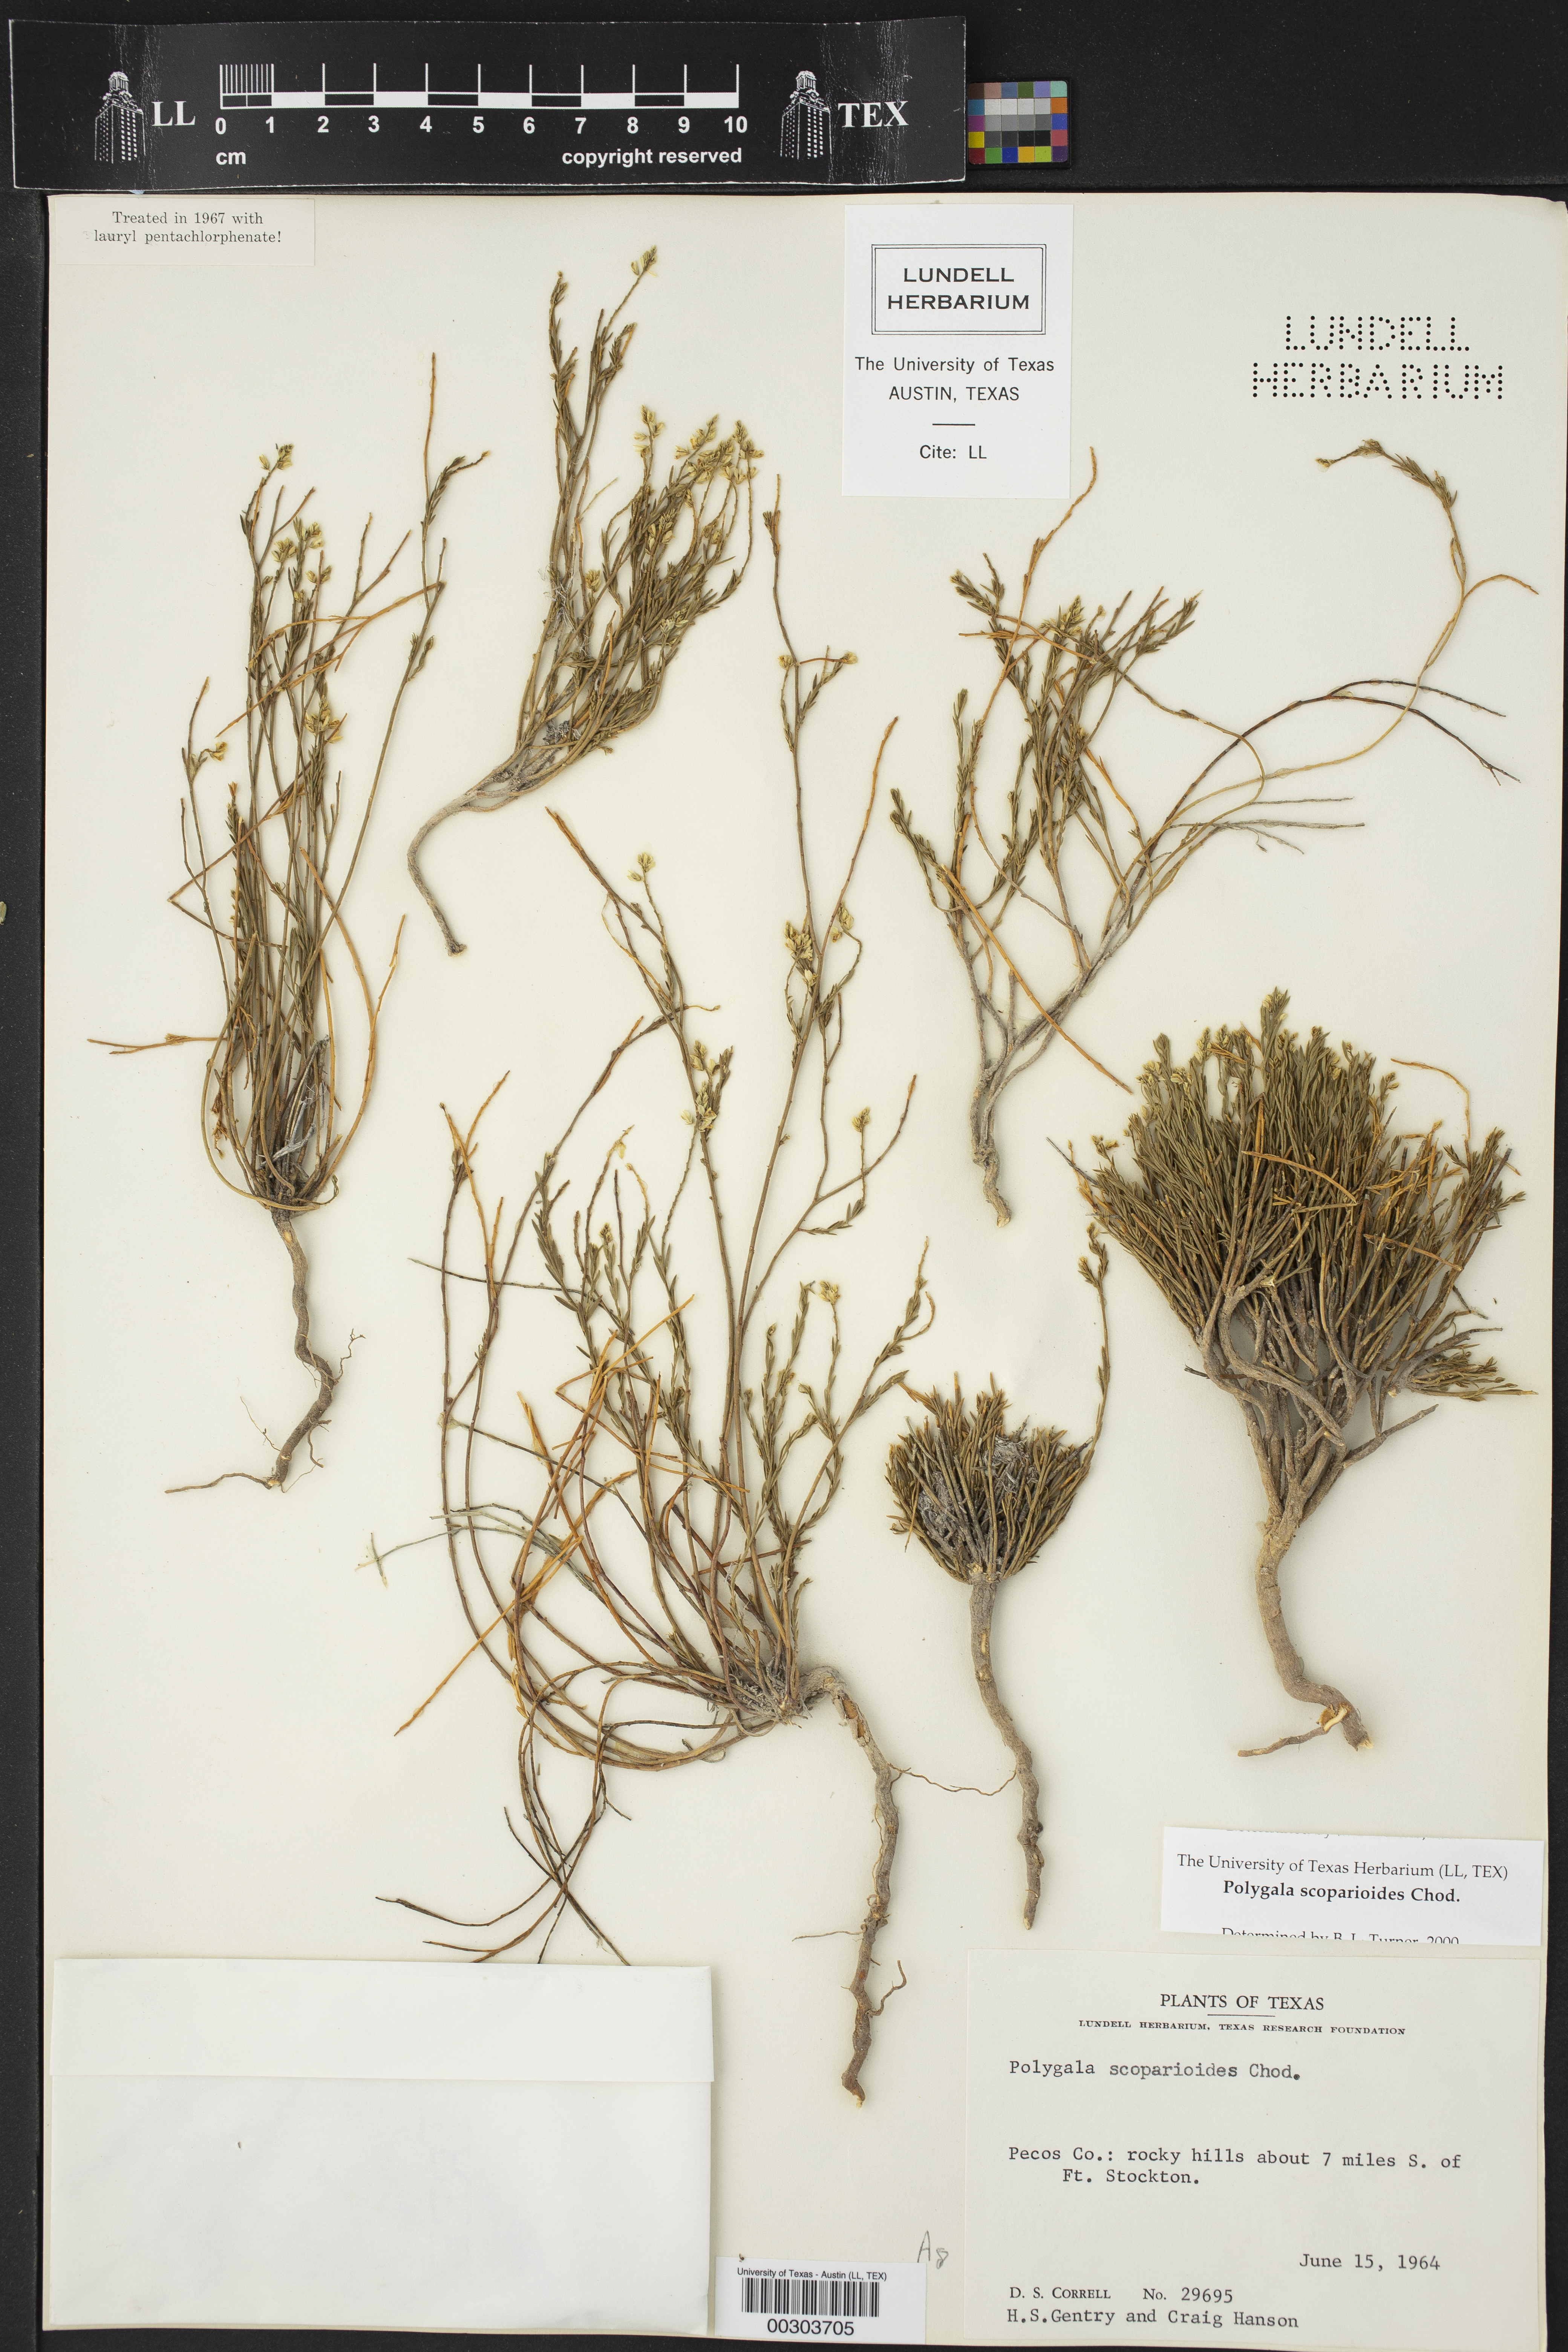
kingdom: Plantae
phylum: Tracheophyta
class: Magnoliopsida
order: Fabales
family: Polygalaceae
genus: Polygala
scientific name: Polygala scoparioides
